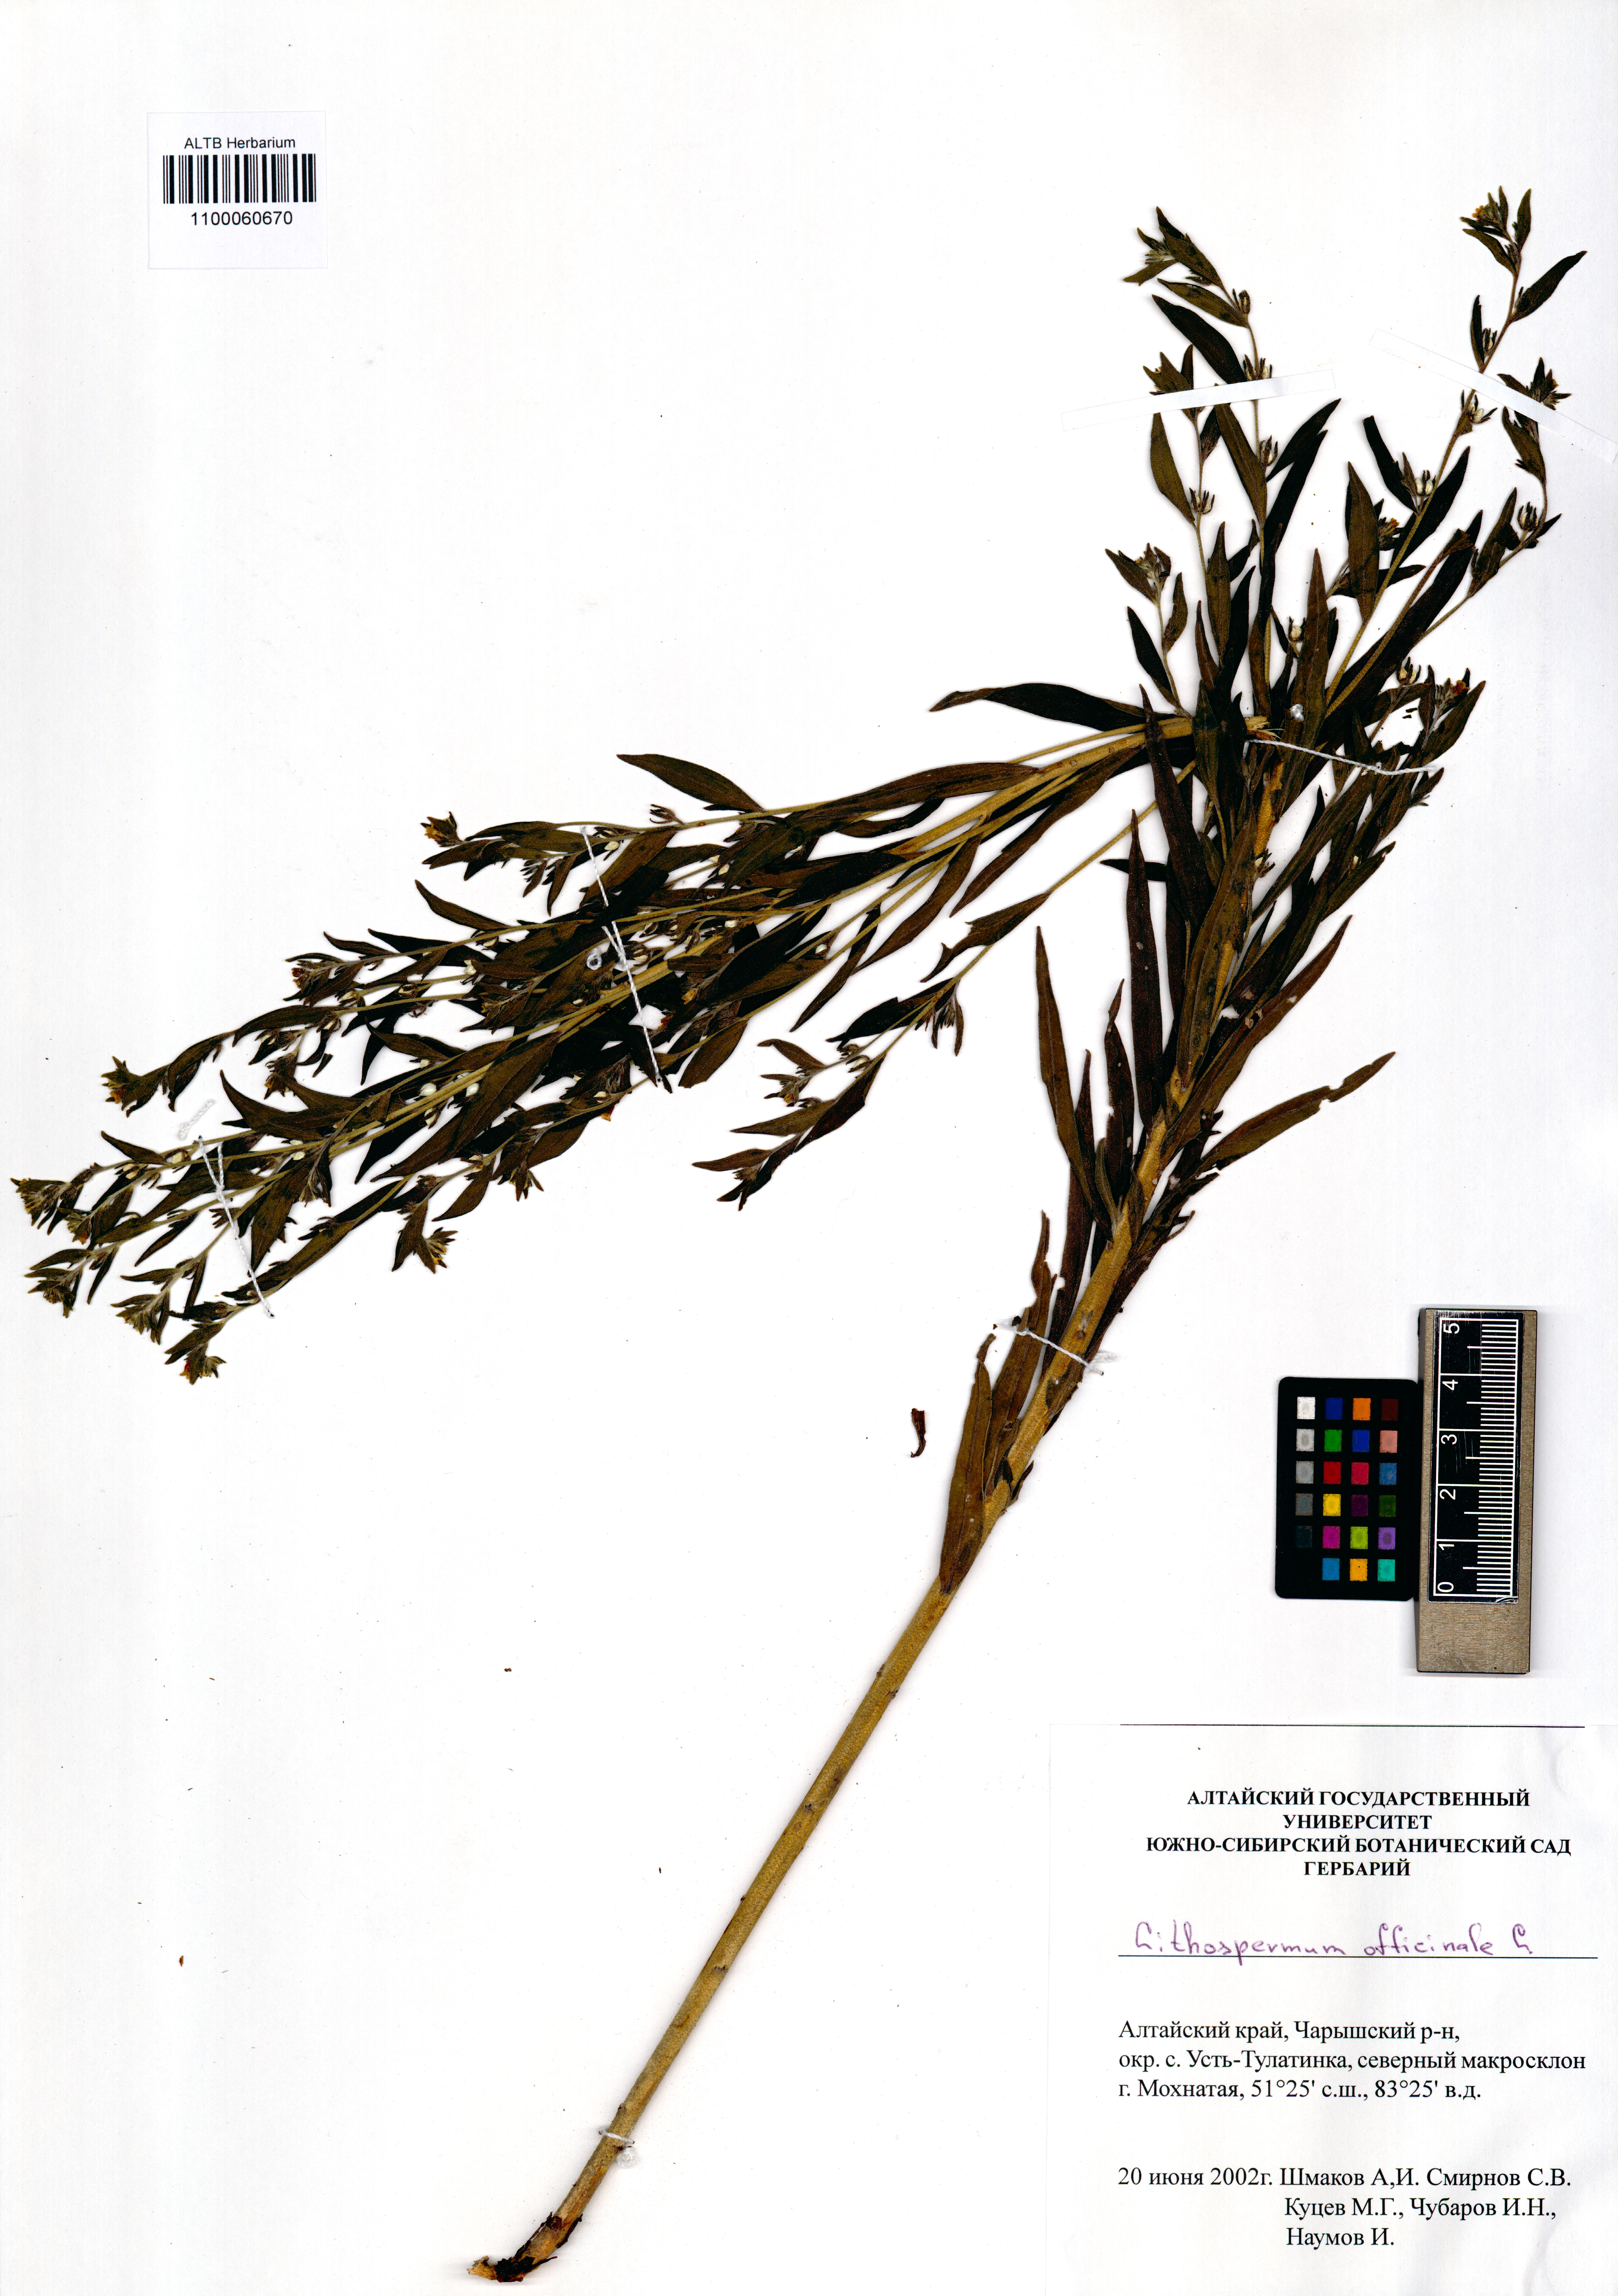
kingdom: Plantae
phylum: Tracheophyta
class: Magnoliopsida
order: Boraginales
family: Boraginaceae
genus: Lithospermum
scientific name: Lithospermum officinale
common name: Common gromwell
